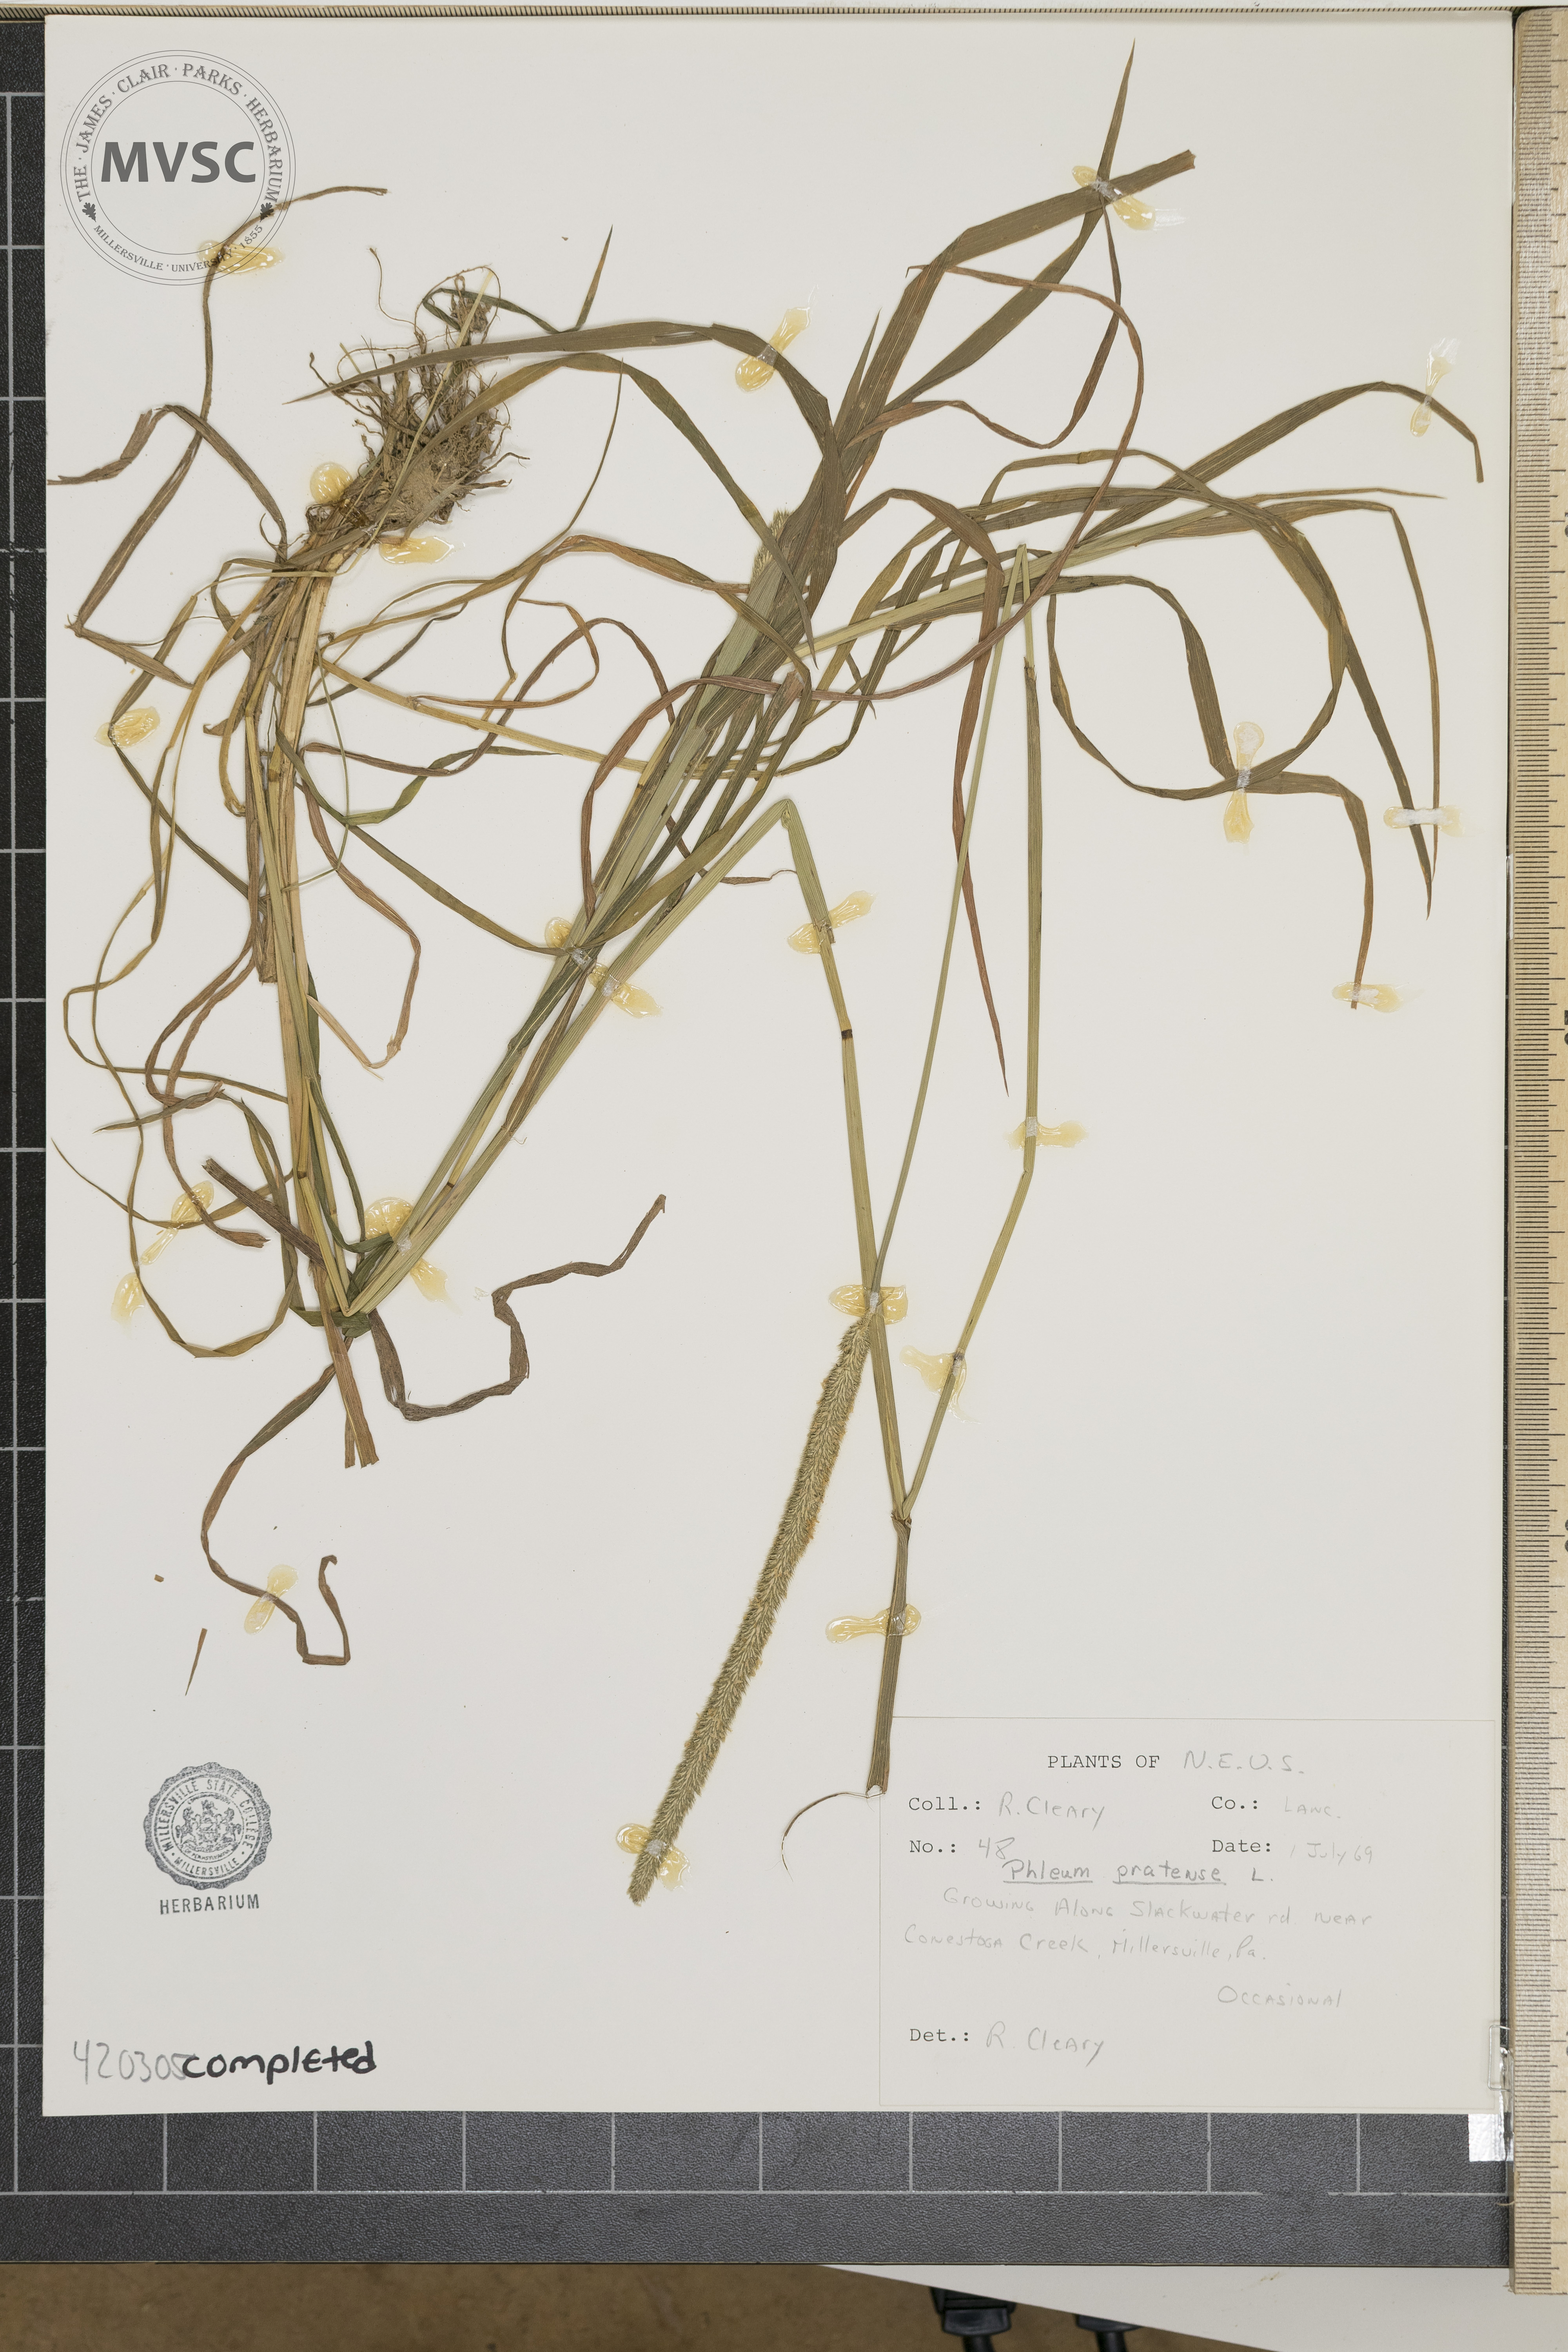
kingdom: Plantae
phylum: Tracheophyta
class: Liliopsida
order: Poales
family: Poaceae
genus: Phleum
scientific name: Phleum pratense
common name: Timothy Grass
